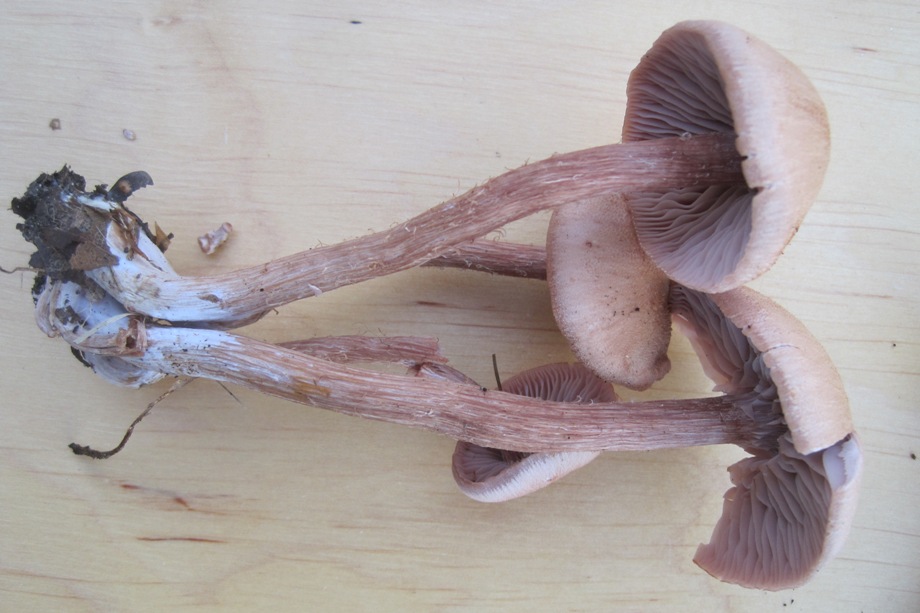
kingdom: Fungi
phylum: Basidiomycota
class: Agaricomycetes
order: Agaricales
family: Hydnangiaceae
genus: Laccaria
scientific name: Laccaria bicolor
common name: tvefarvet ametysthat
